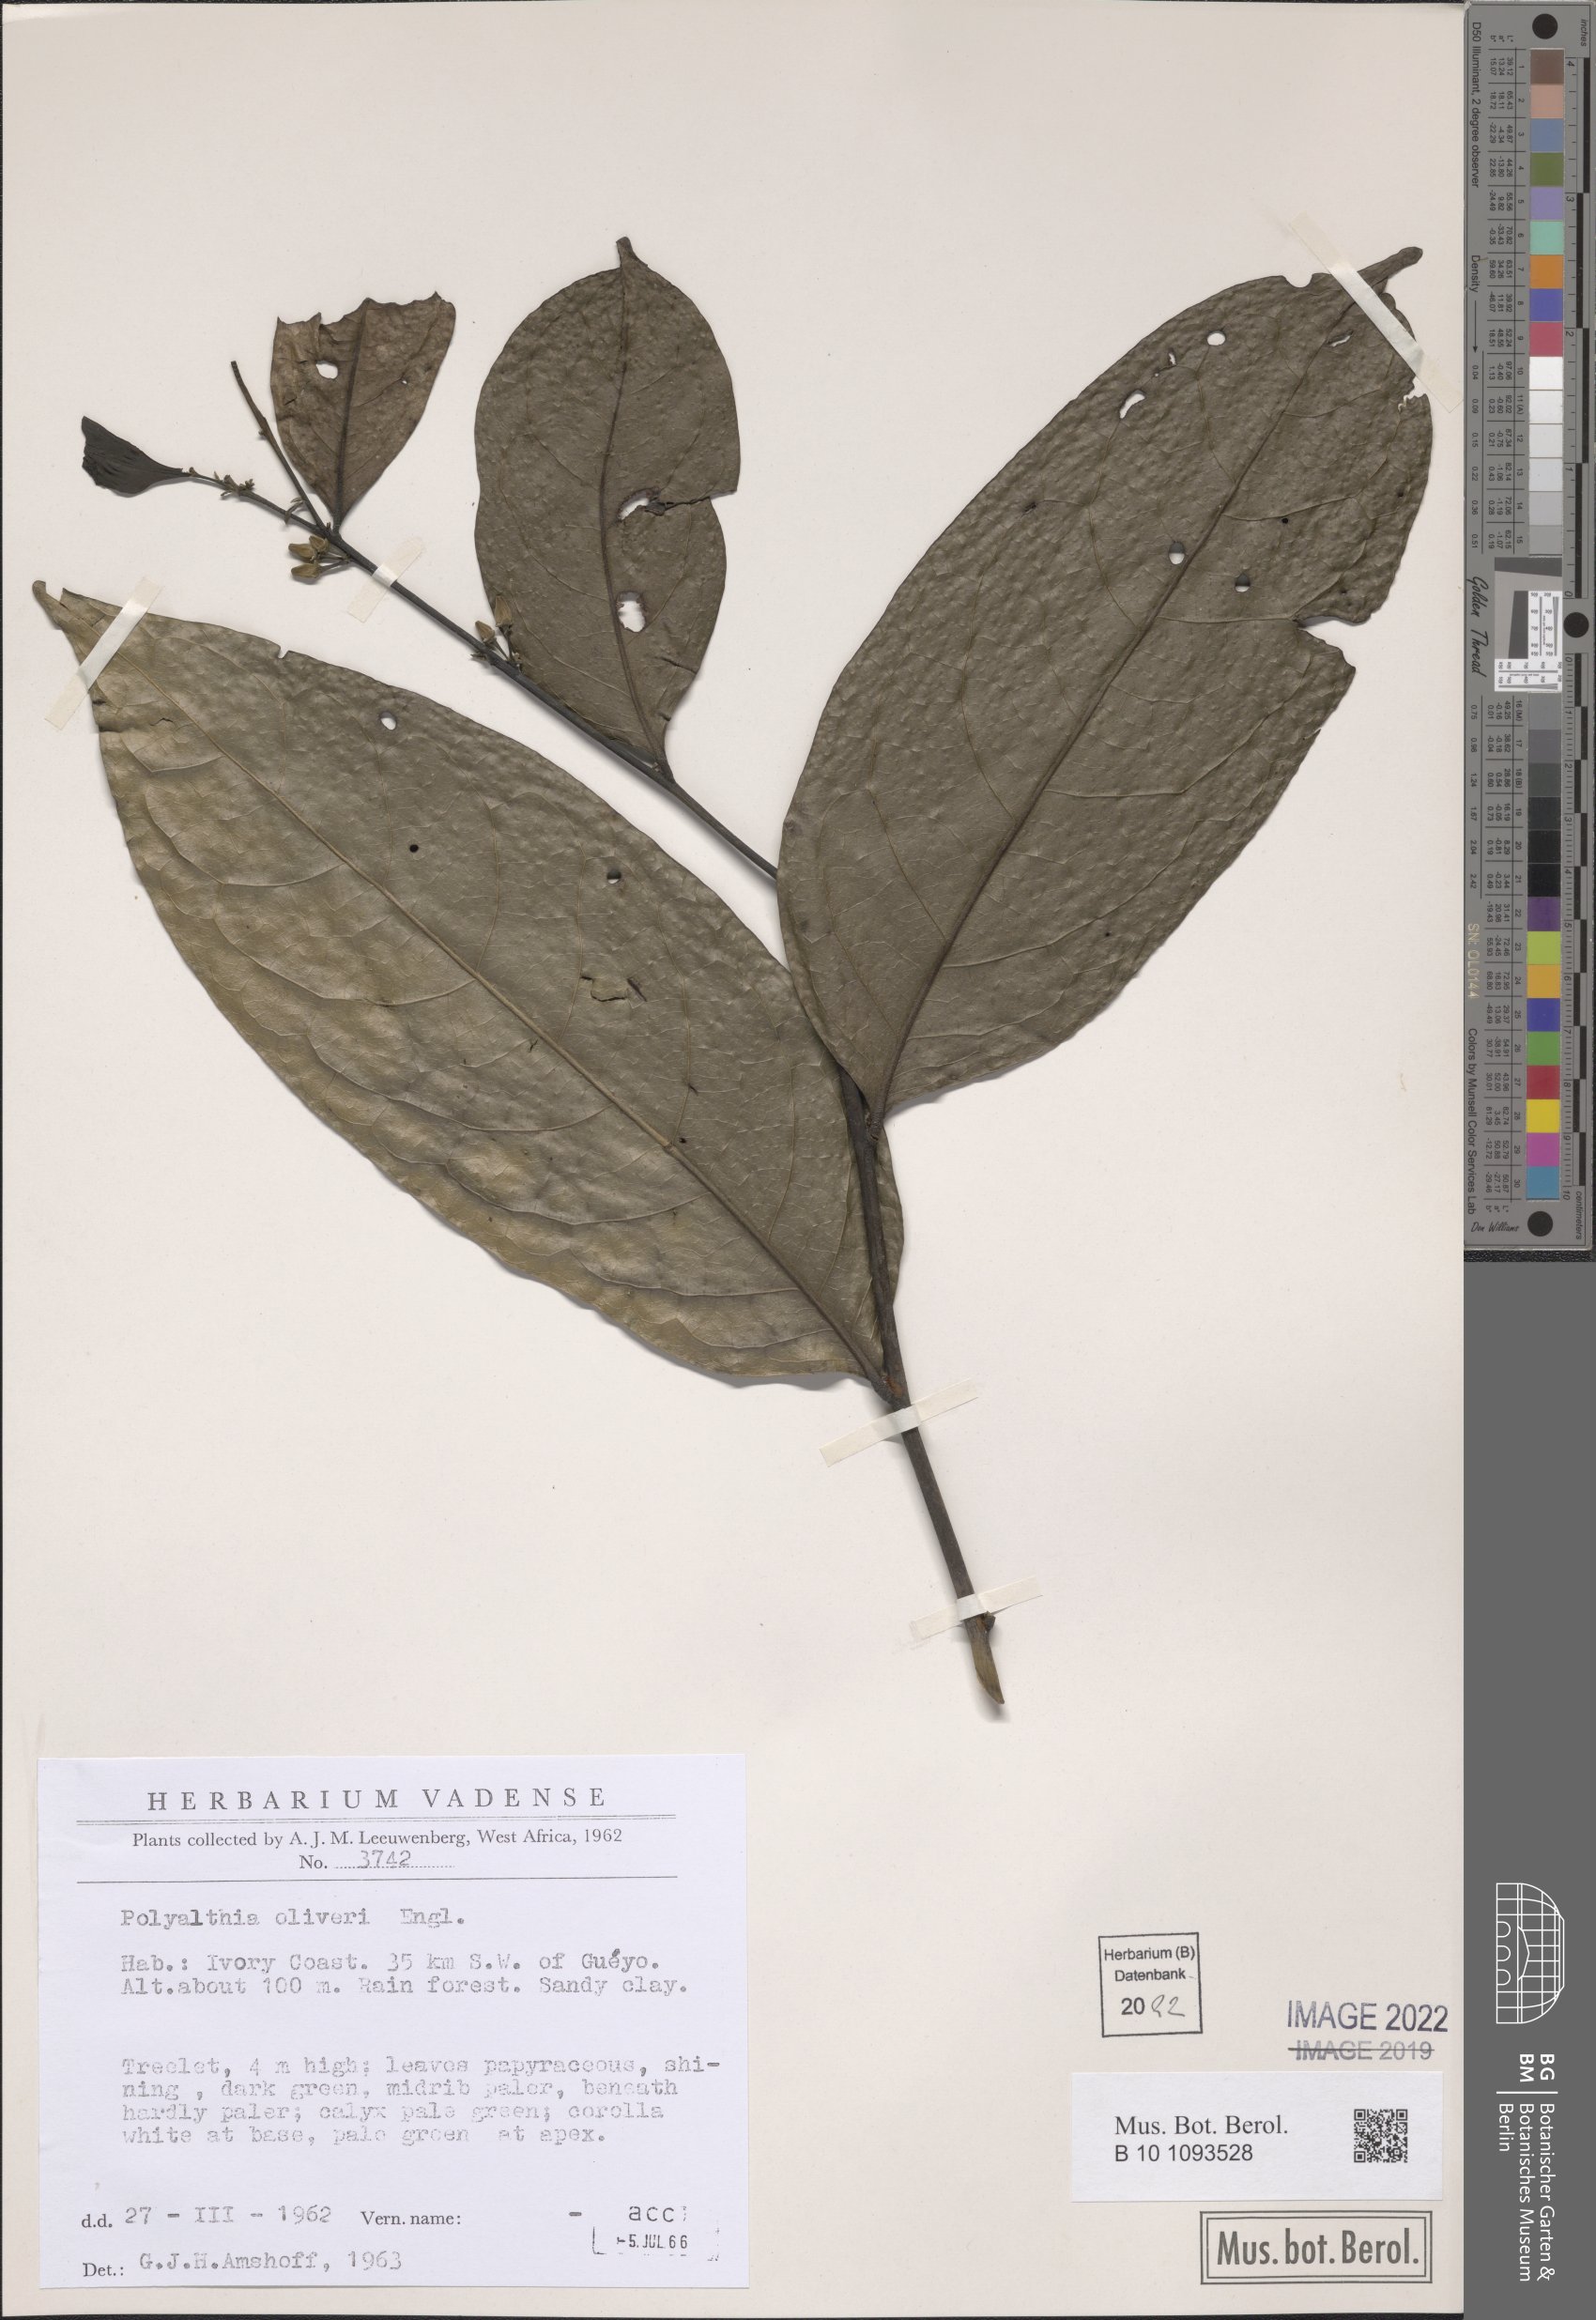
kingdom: Plantae
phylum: Tracheophyta
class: Magnoliopsida
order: Magnoliales
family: Annonaceae
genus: Greenwayodendron
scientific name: Greenwayodendron oliveri
